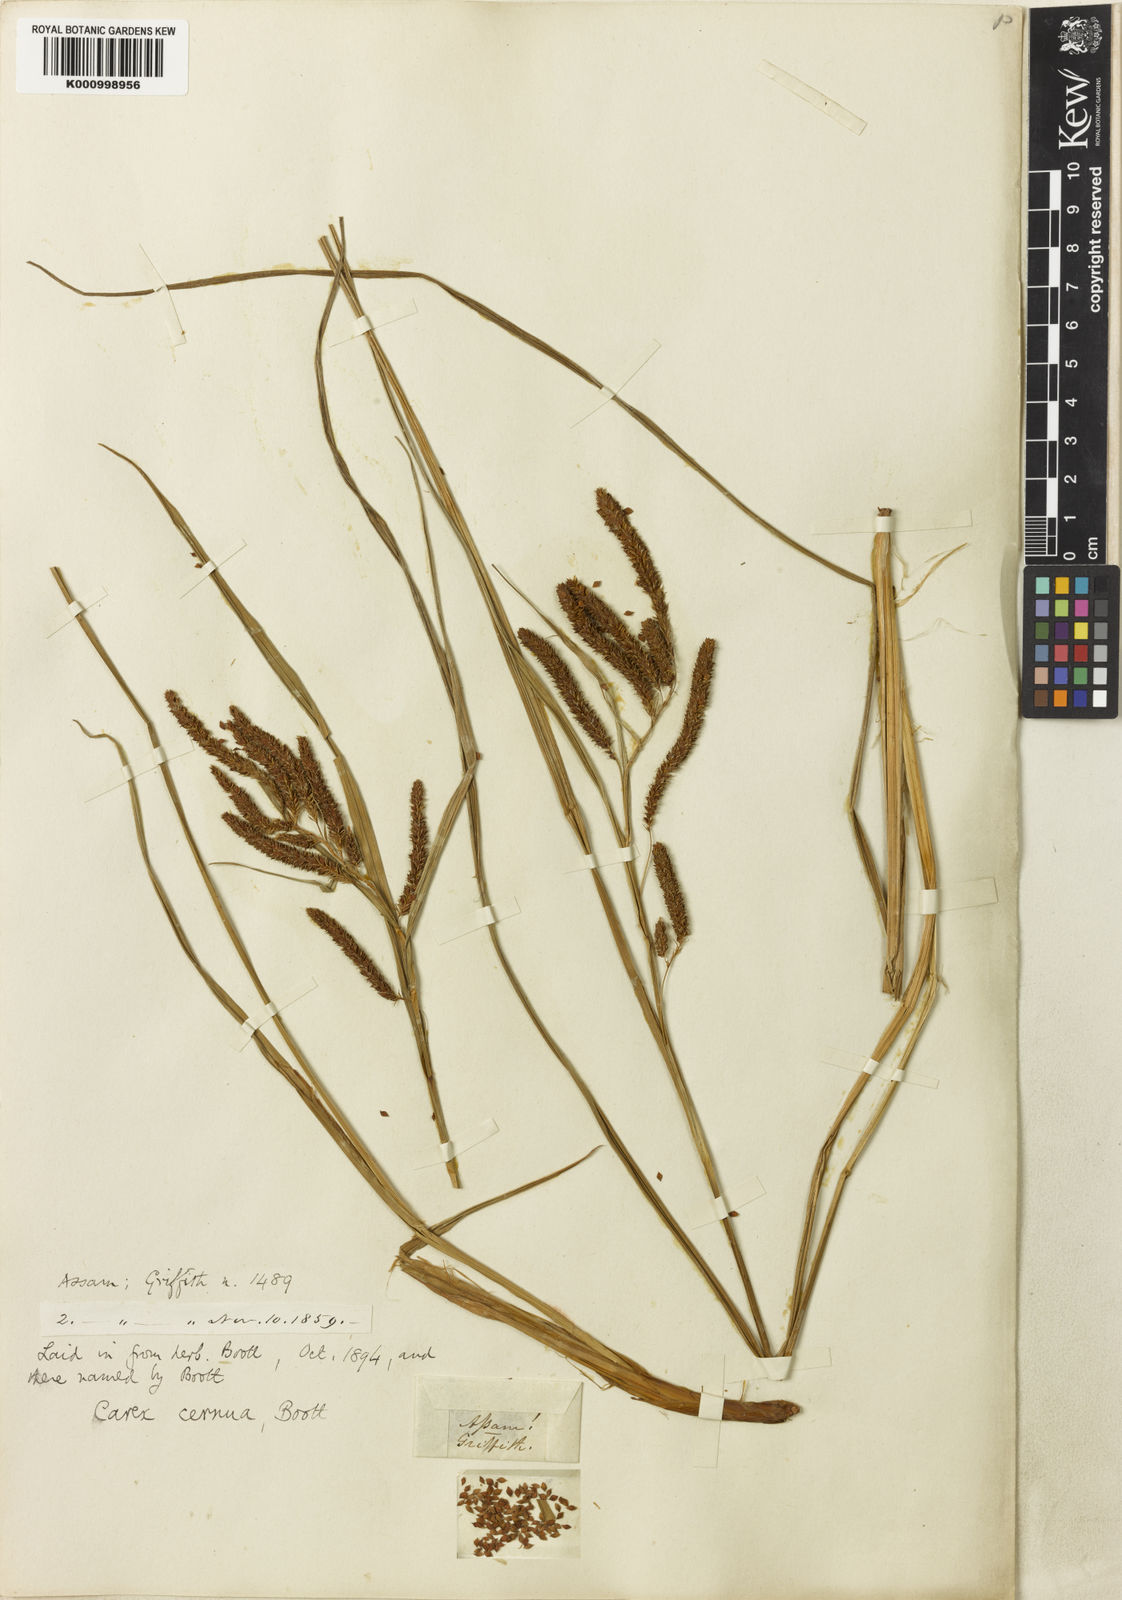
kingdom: Plantae
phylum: Tracheophyta
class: Liliopsida
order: Poales
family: Cyperaceae
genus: Carex
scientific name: Carex
